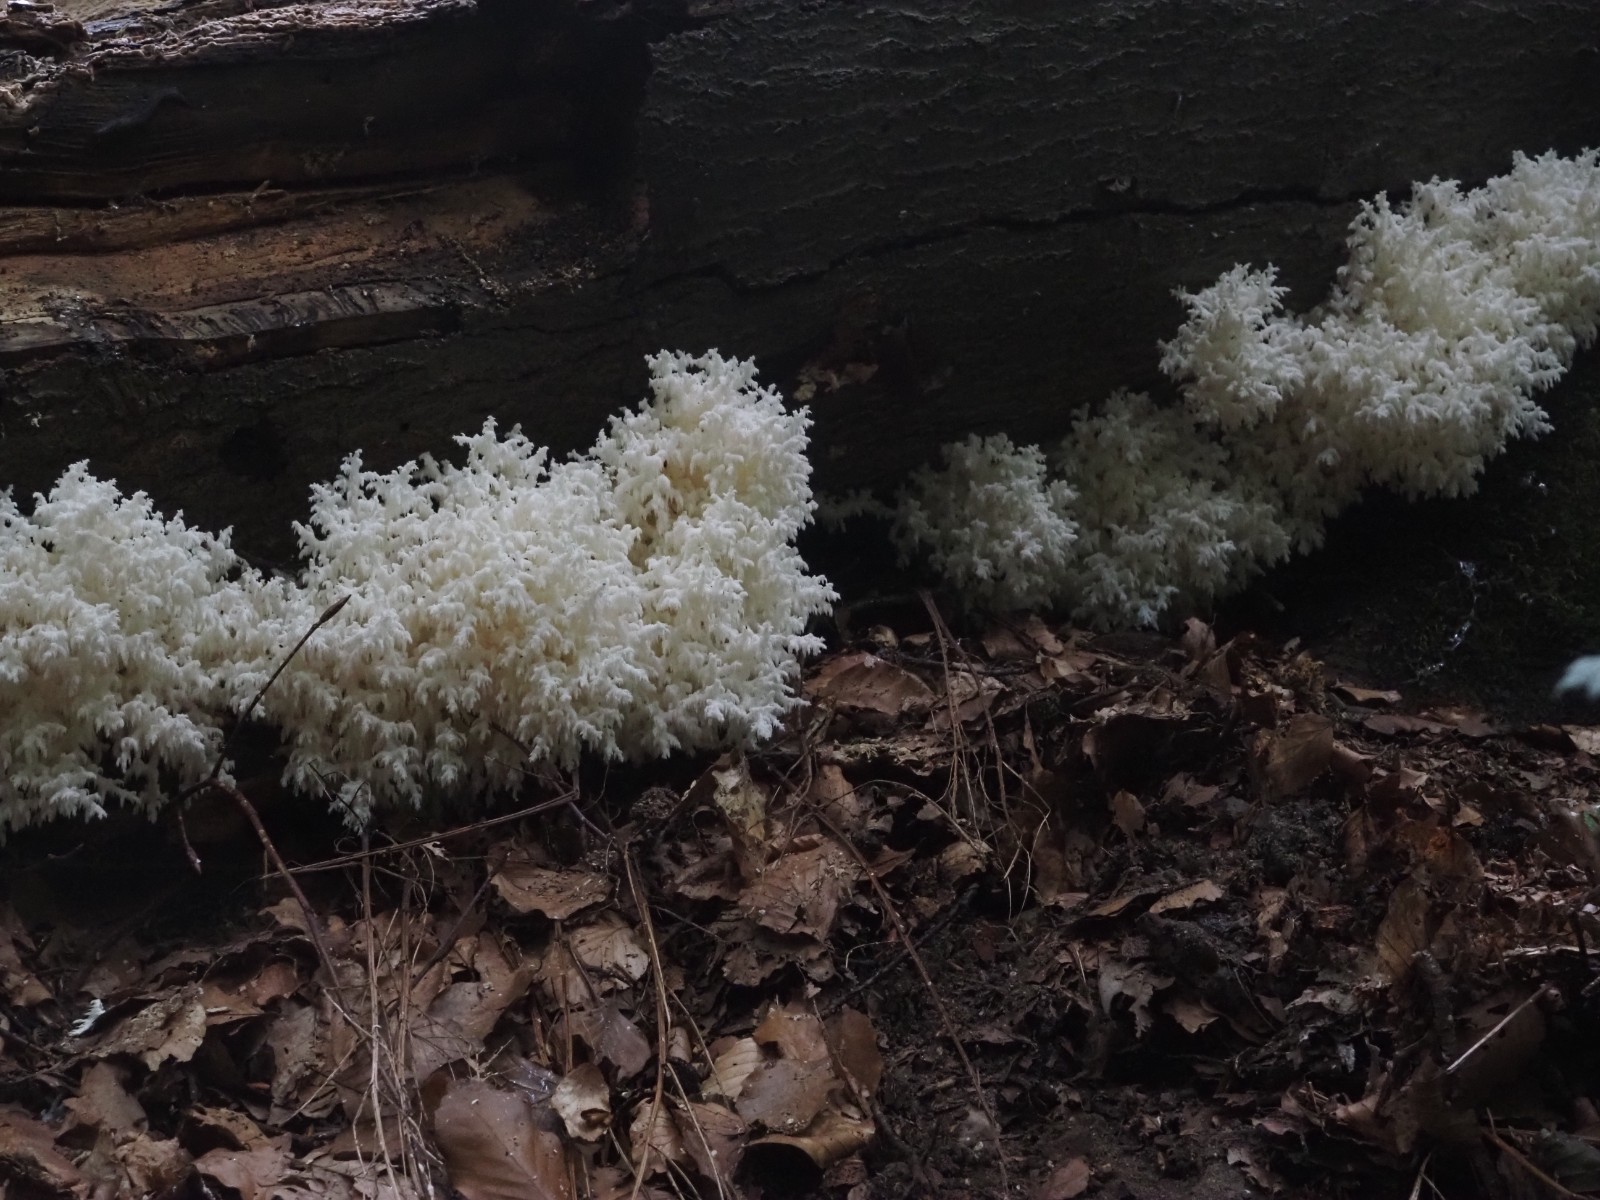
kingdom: Fungi
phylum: Basidiomycota
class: Agaricomycetes
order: Russulales
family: Hericiaceae
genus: Hericium
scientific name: Hericium coralloides
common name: koralpigsvamp
